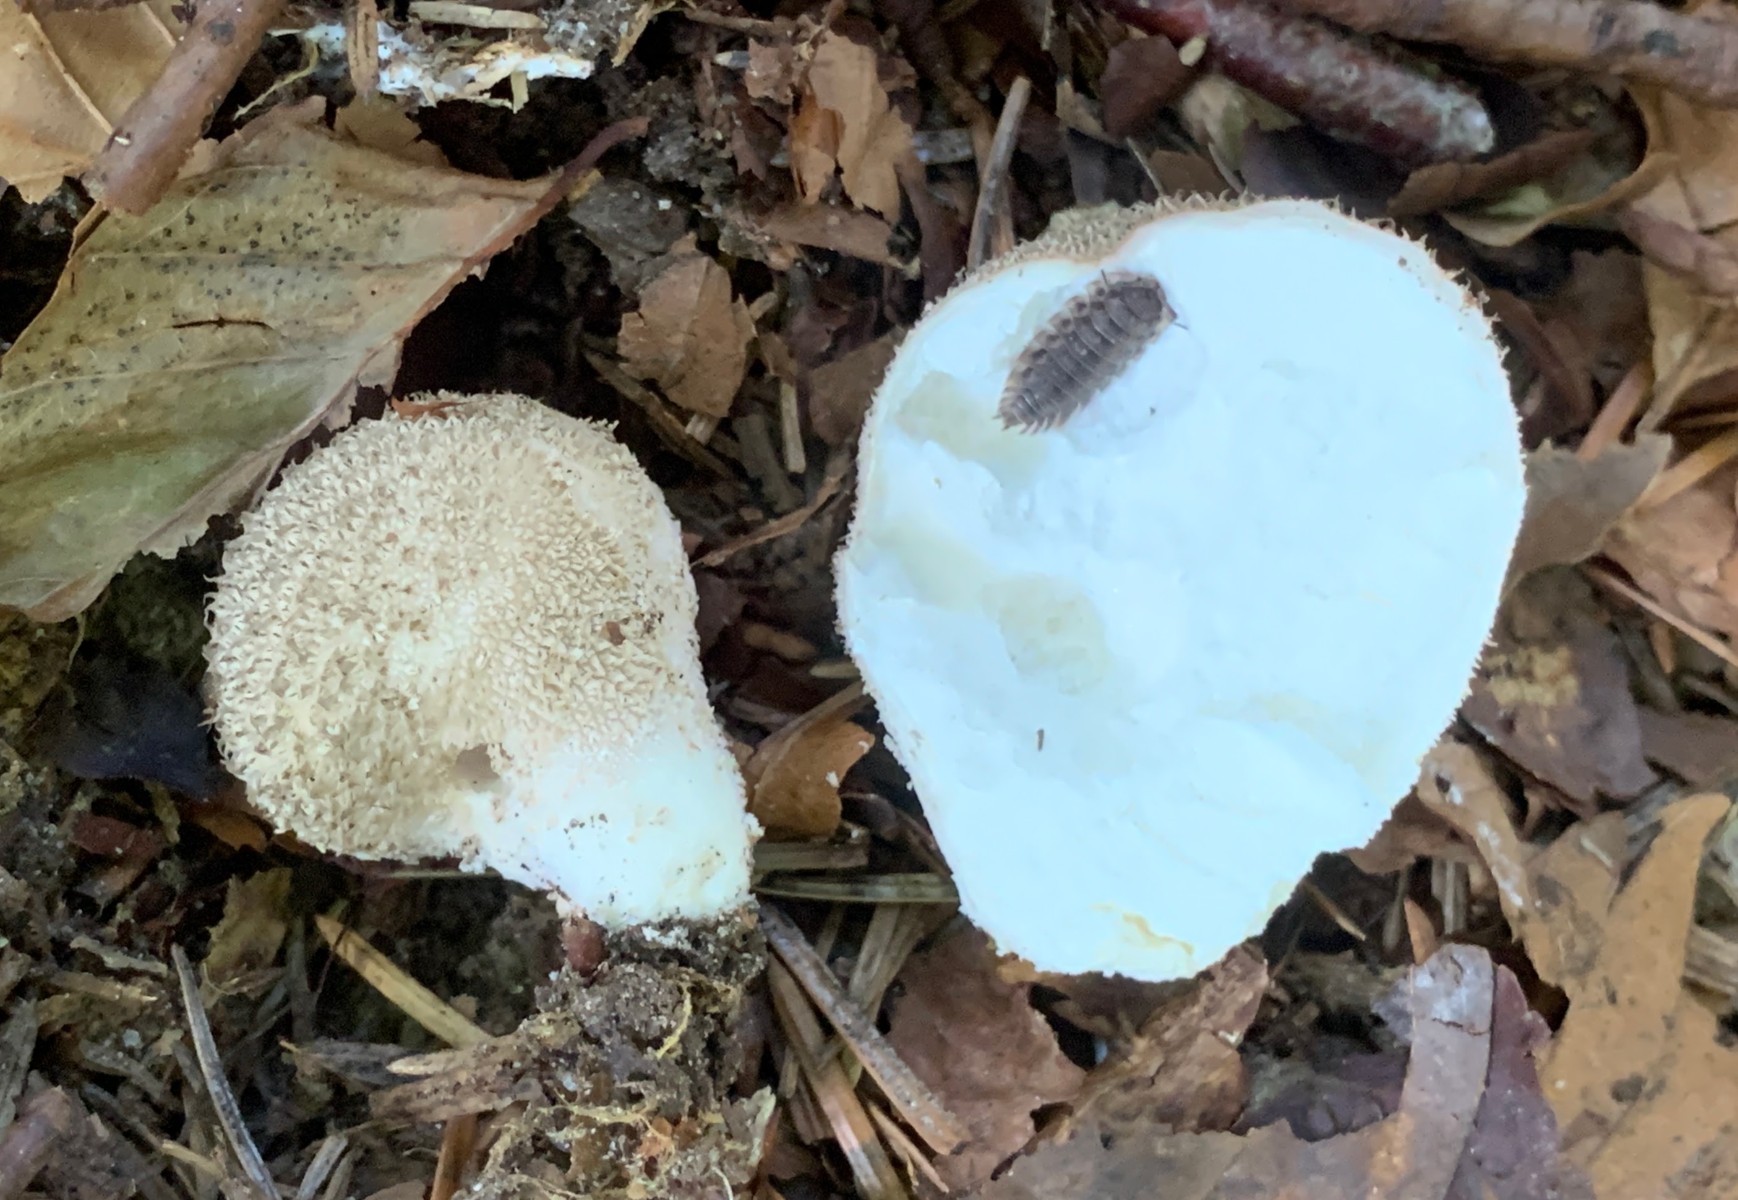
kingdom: Fungi
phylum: Basidiomycota
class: Agaricomycetes
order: Agaricales
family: Lycoperdaceae
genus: Lycoperdon
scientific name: Lycoperdon perlatum
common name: krystal-støvbold
